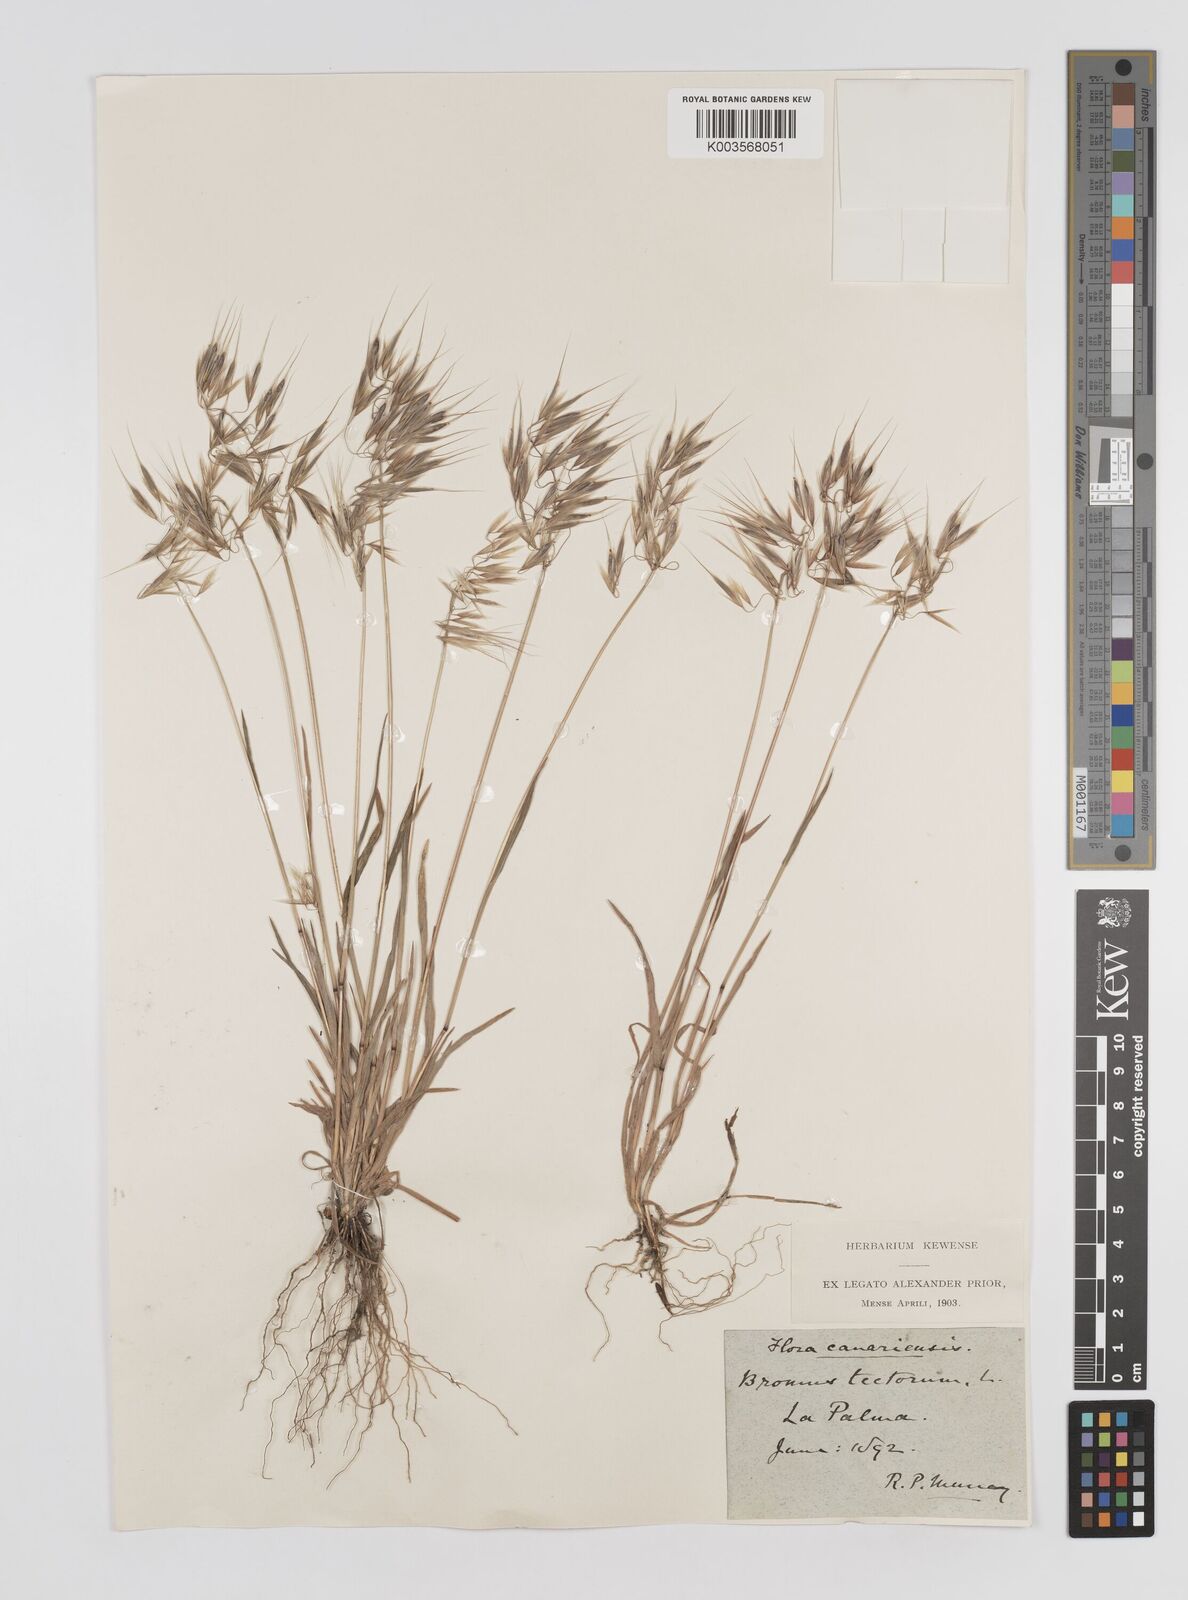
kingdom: Plantae
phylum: Tracheophyta
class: Liliopsida
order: Poales
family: Poaceae
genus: Bromus
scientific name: Bromus tectorum
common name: Cheatgrass
